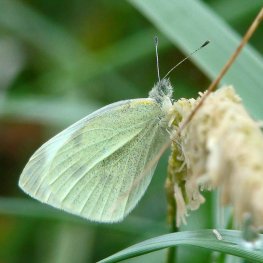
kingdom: Animalia
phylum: Arthropoda
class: Insecta
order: Lepidoptera
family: Pieridae
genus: Pieris
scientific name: Pieris rapae
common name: Cabbage White
